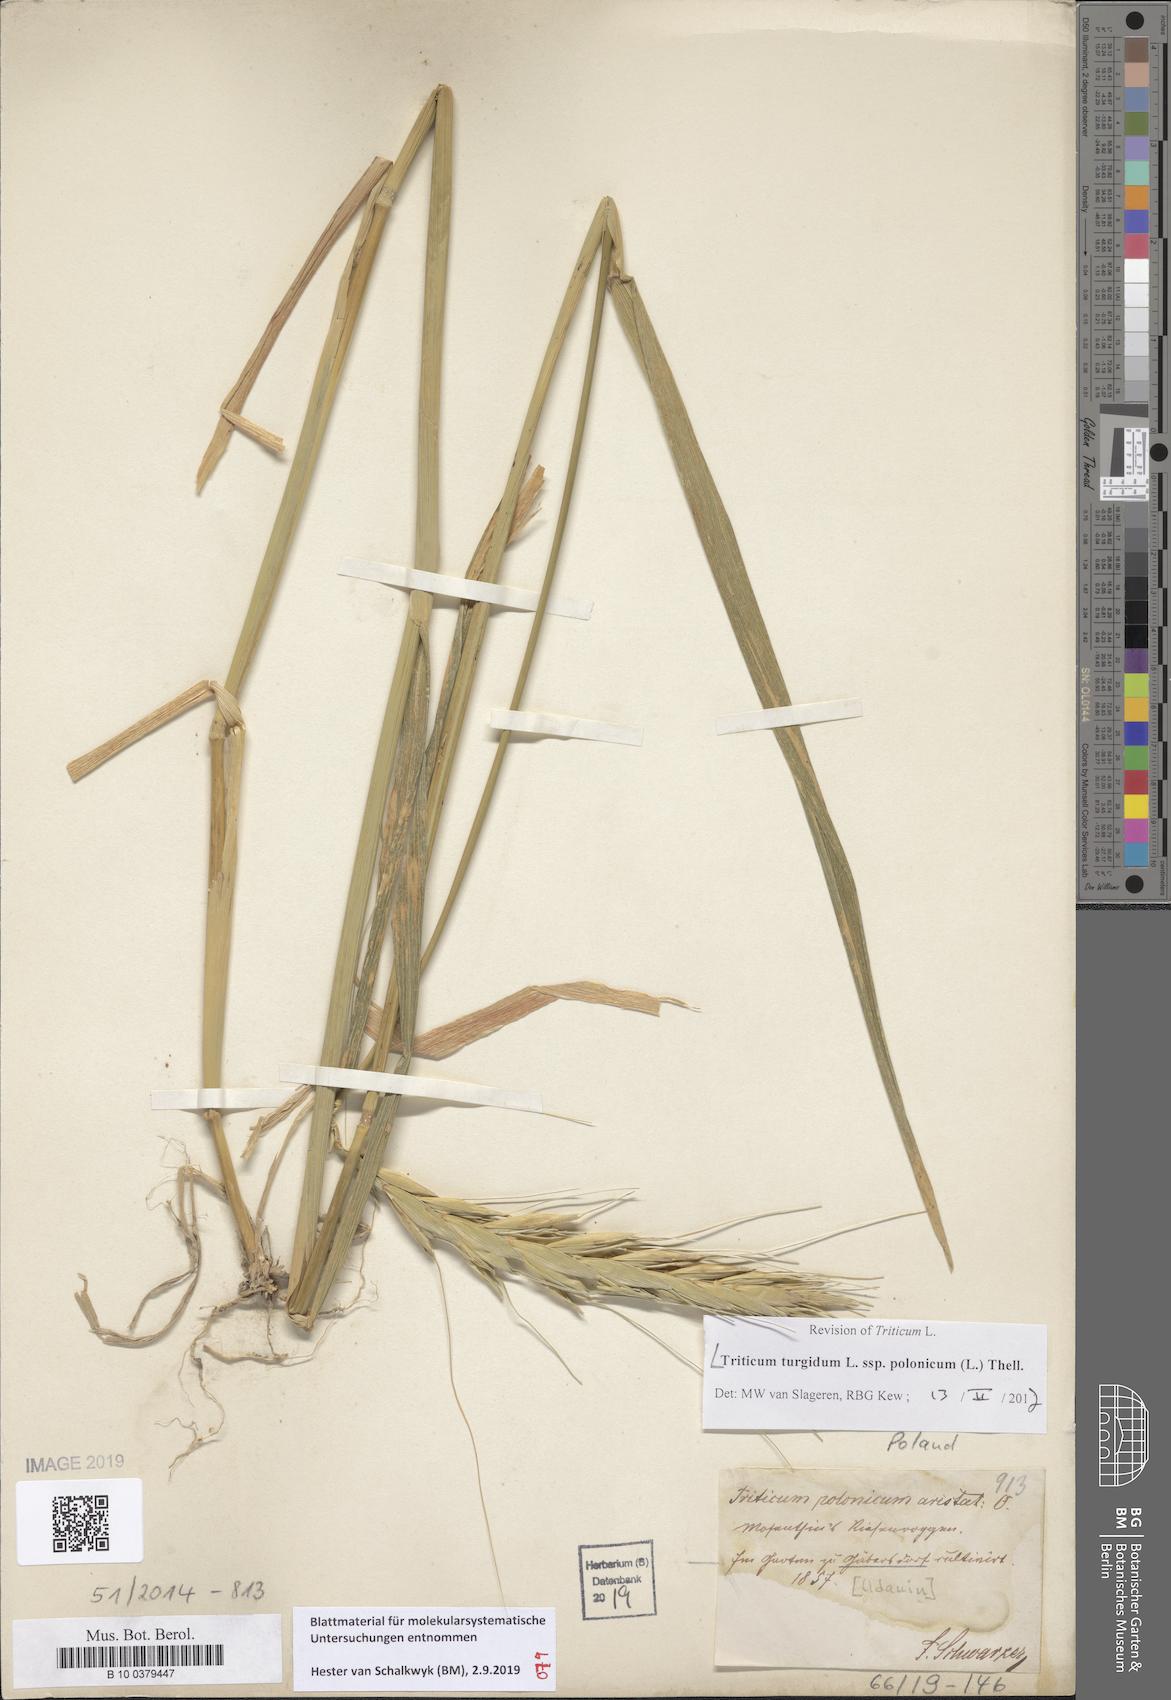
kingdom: Plantae
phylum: Tracheophyta
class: Liliopsida
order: Poales
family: Poaceae
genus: Triticum
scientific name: Triticum turgidum
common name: Rivet wheat
